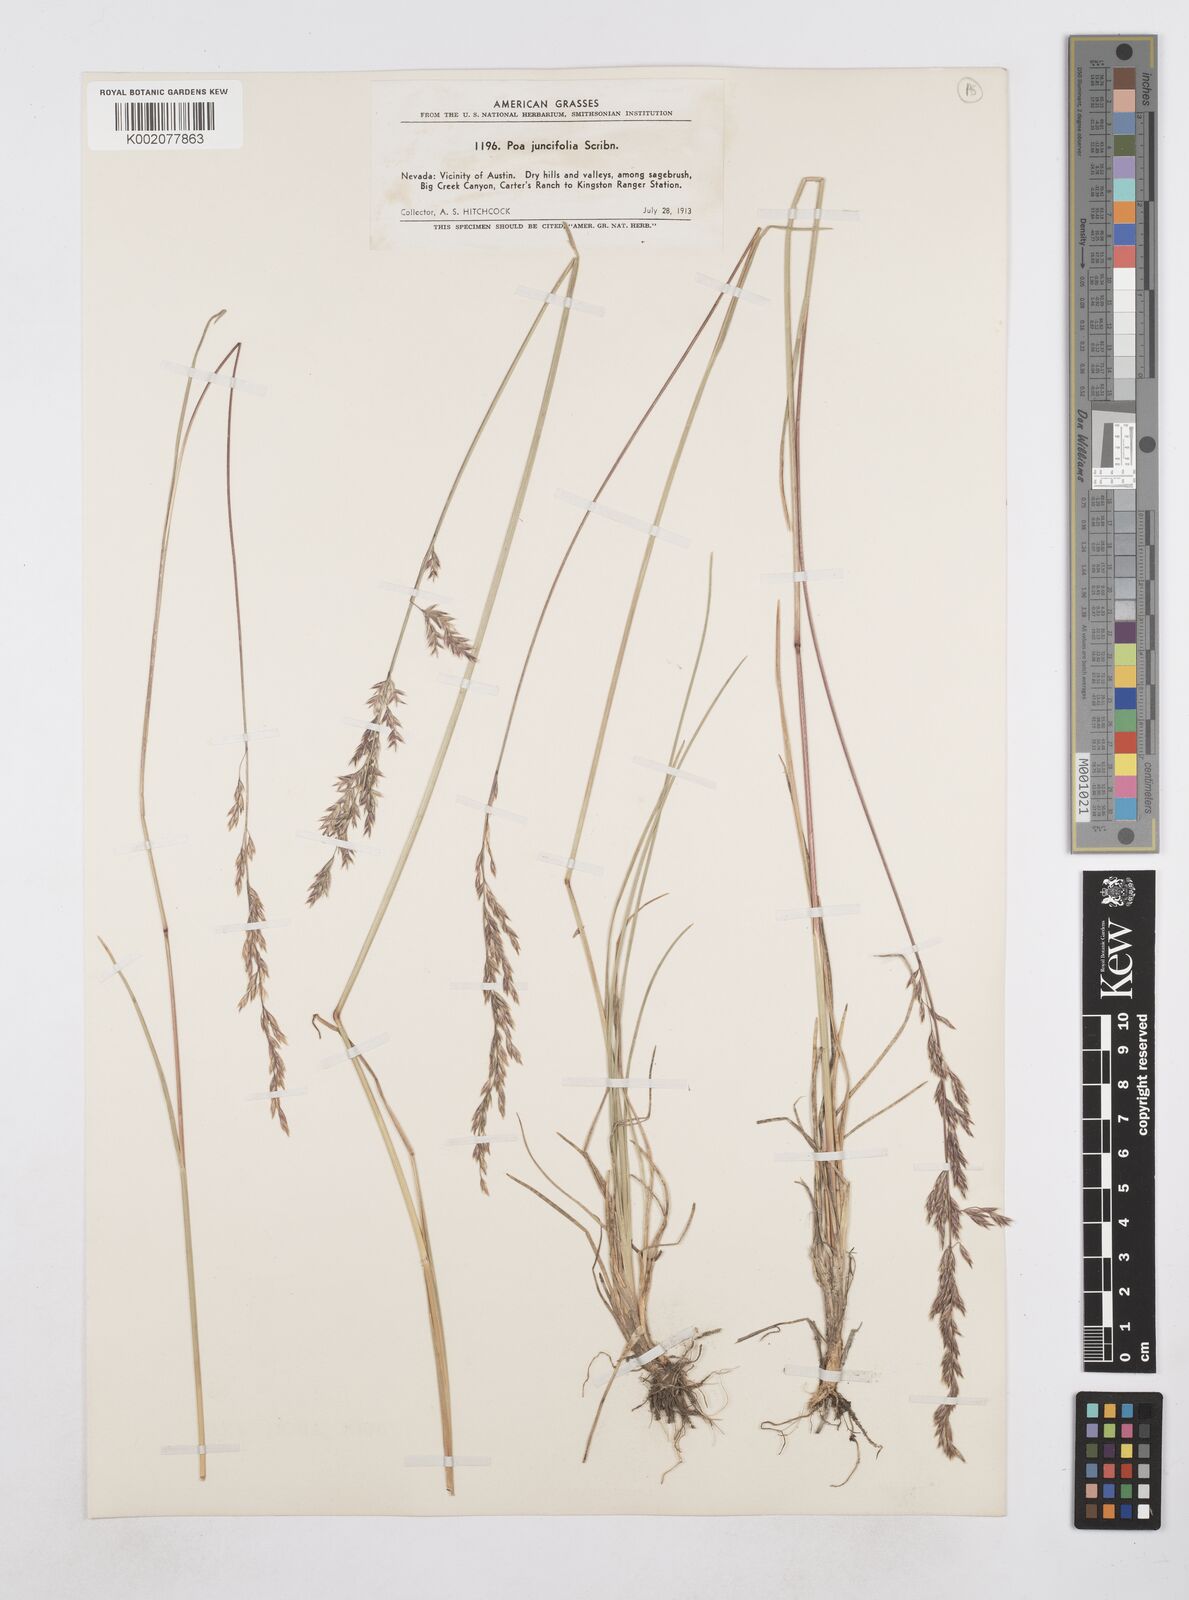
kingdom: Plantae
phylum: Tracheophyta
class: Liliopsida
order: Poales
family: Poaceae
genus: Poa
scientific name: Poa secunda
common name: Sandberg bluegrass
